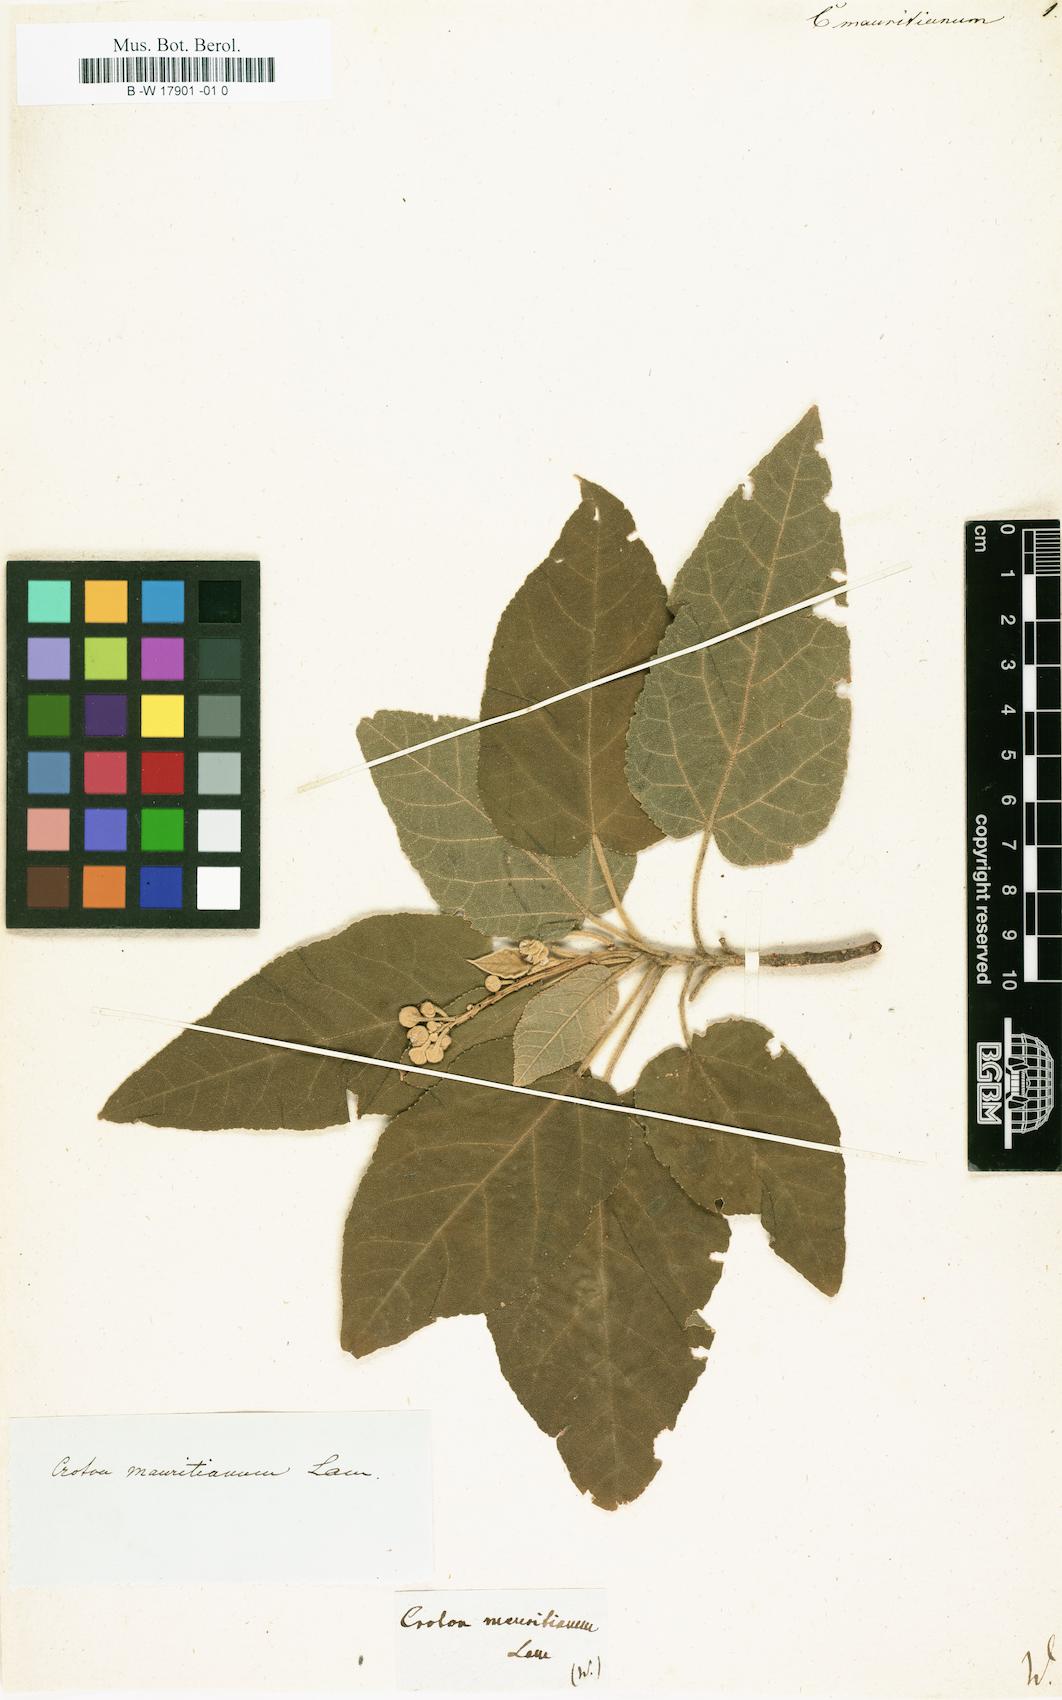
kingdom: Plantae
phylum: Tracheophyta
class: Magnoliopsida
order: Malpighiales
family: Euphorbiaceae
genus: Croton
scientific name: Croton mauritianus
